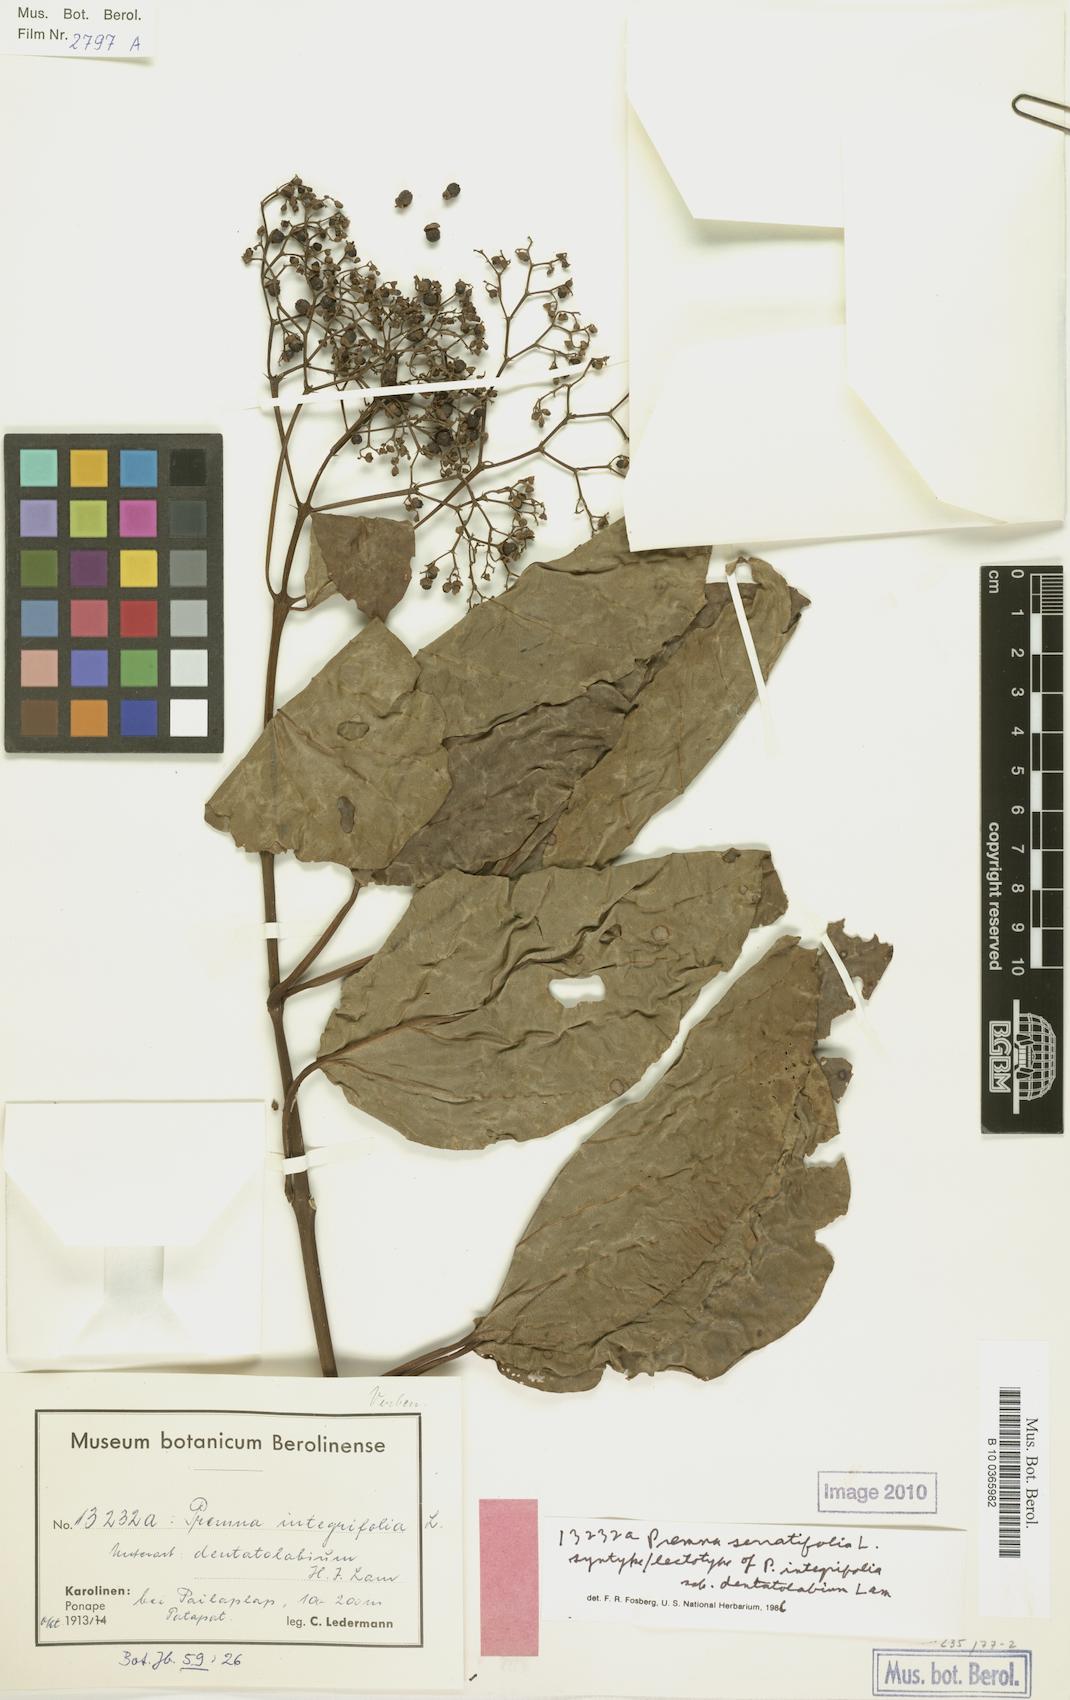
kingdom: Plantae
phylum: Tracheophyta
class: Magnoliopsida
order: Lamiales
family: Lamiaceae
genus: Premna
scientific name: Premna serratifolia
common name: Bastard guelder
